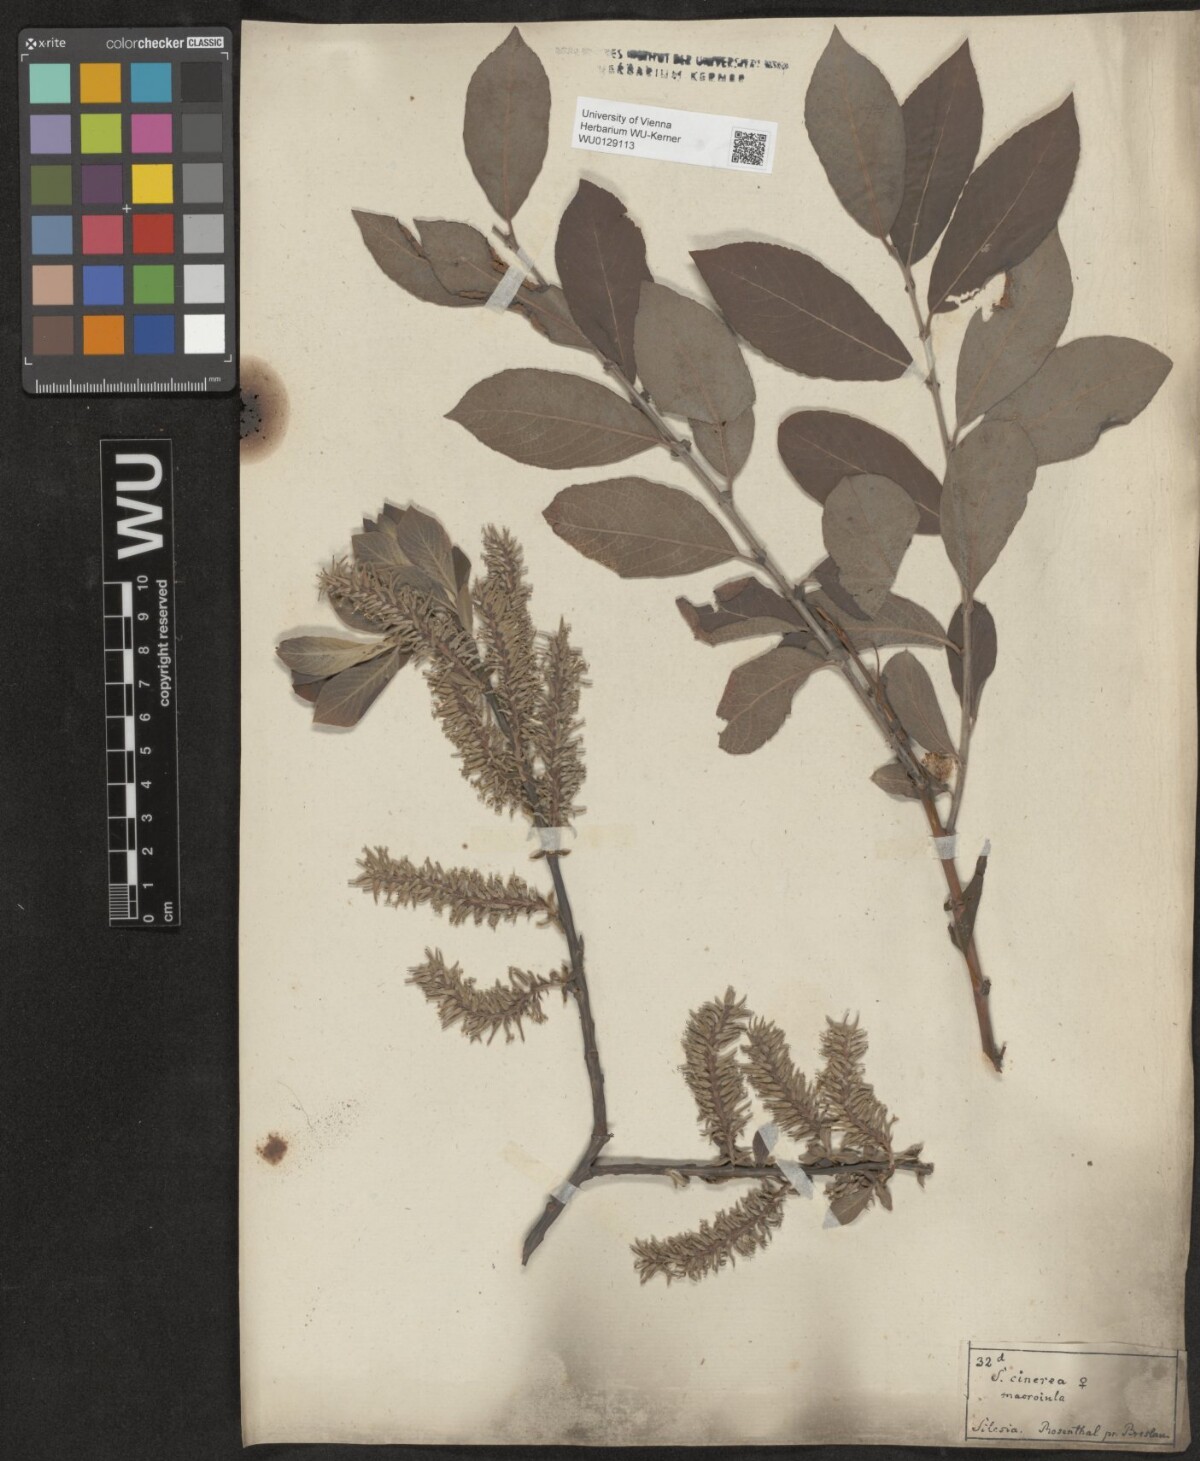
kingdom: Plantae
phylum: Tracheophyta
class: Magnoliopsida
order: Malpighiales
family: Salicaceae
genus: Salix
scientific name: Salix cinerea
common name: Common sallow
